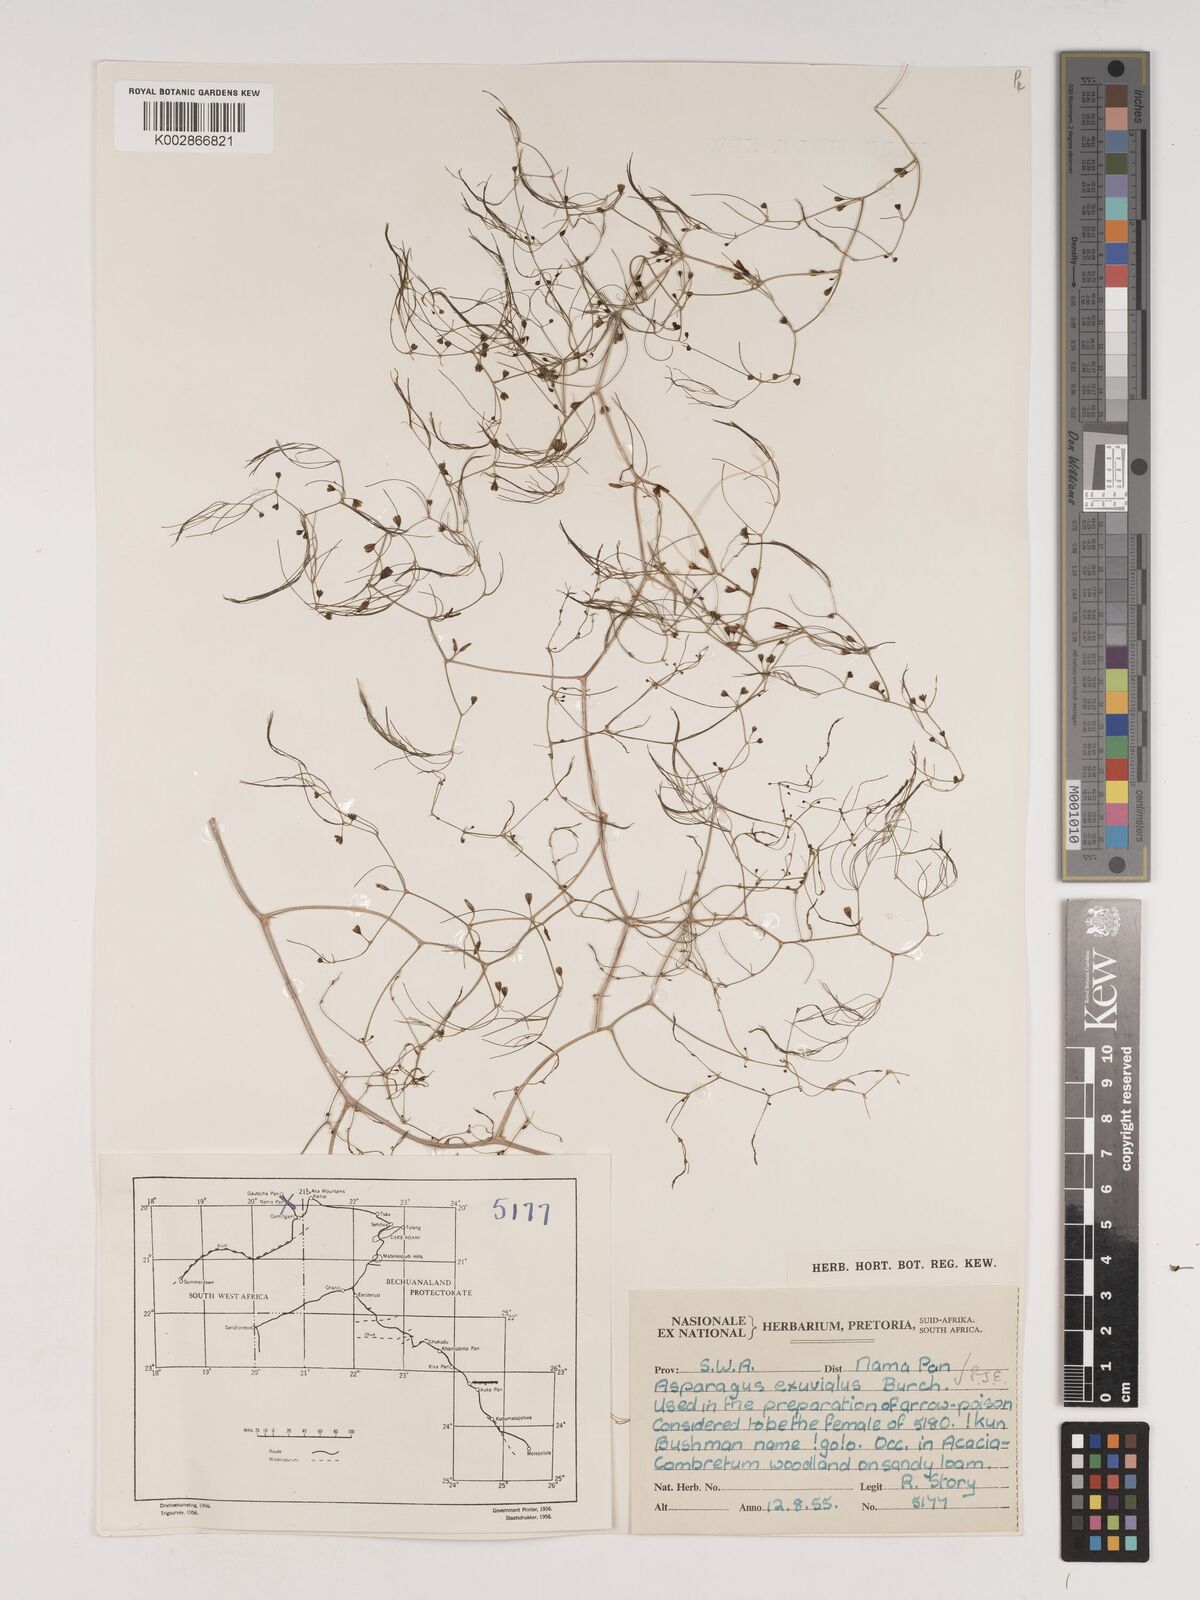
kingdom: Plantae
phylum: Tracheophyta
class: Liliopsida
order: Asparagales
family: Asparagaceae
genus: Asparagus
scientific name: Asparagus exuvialis
